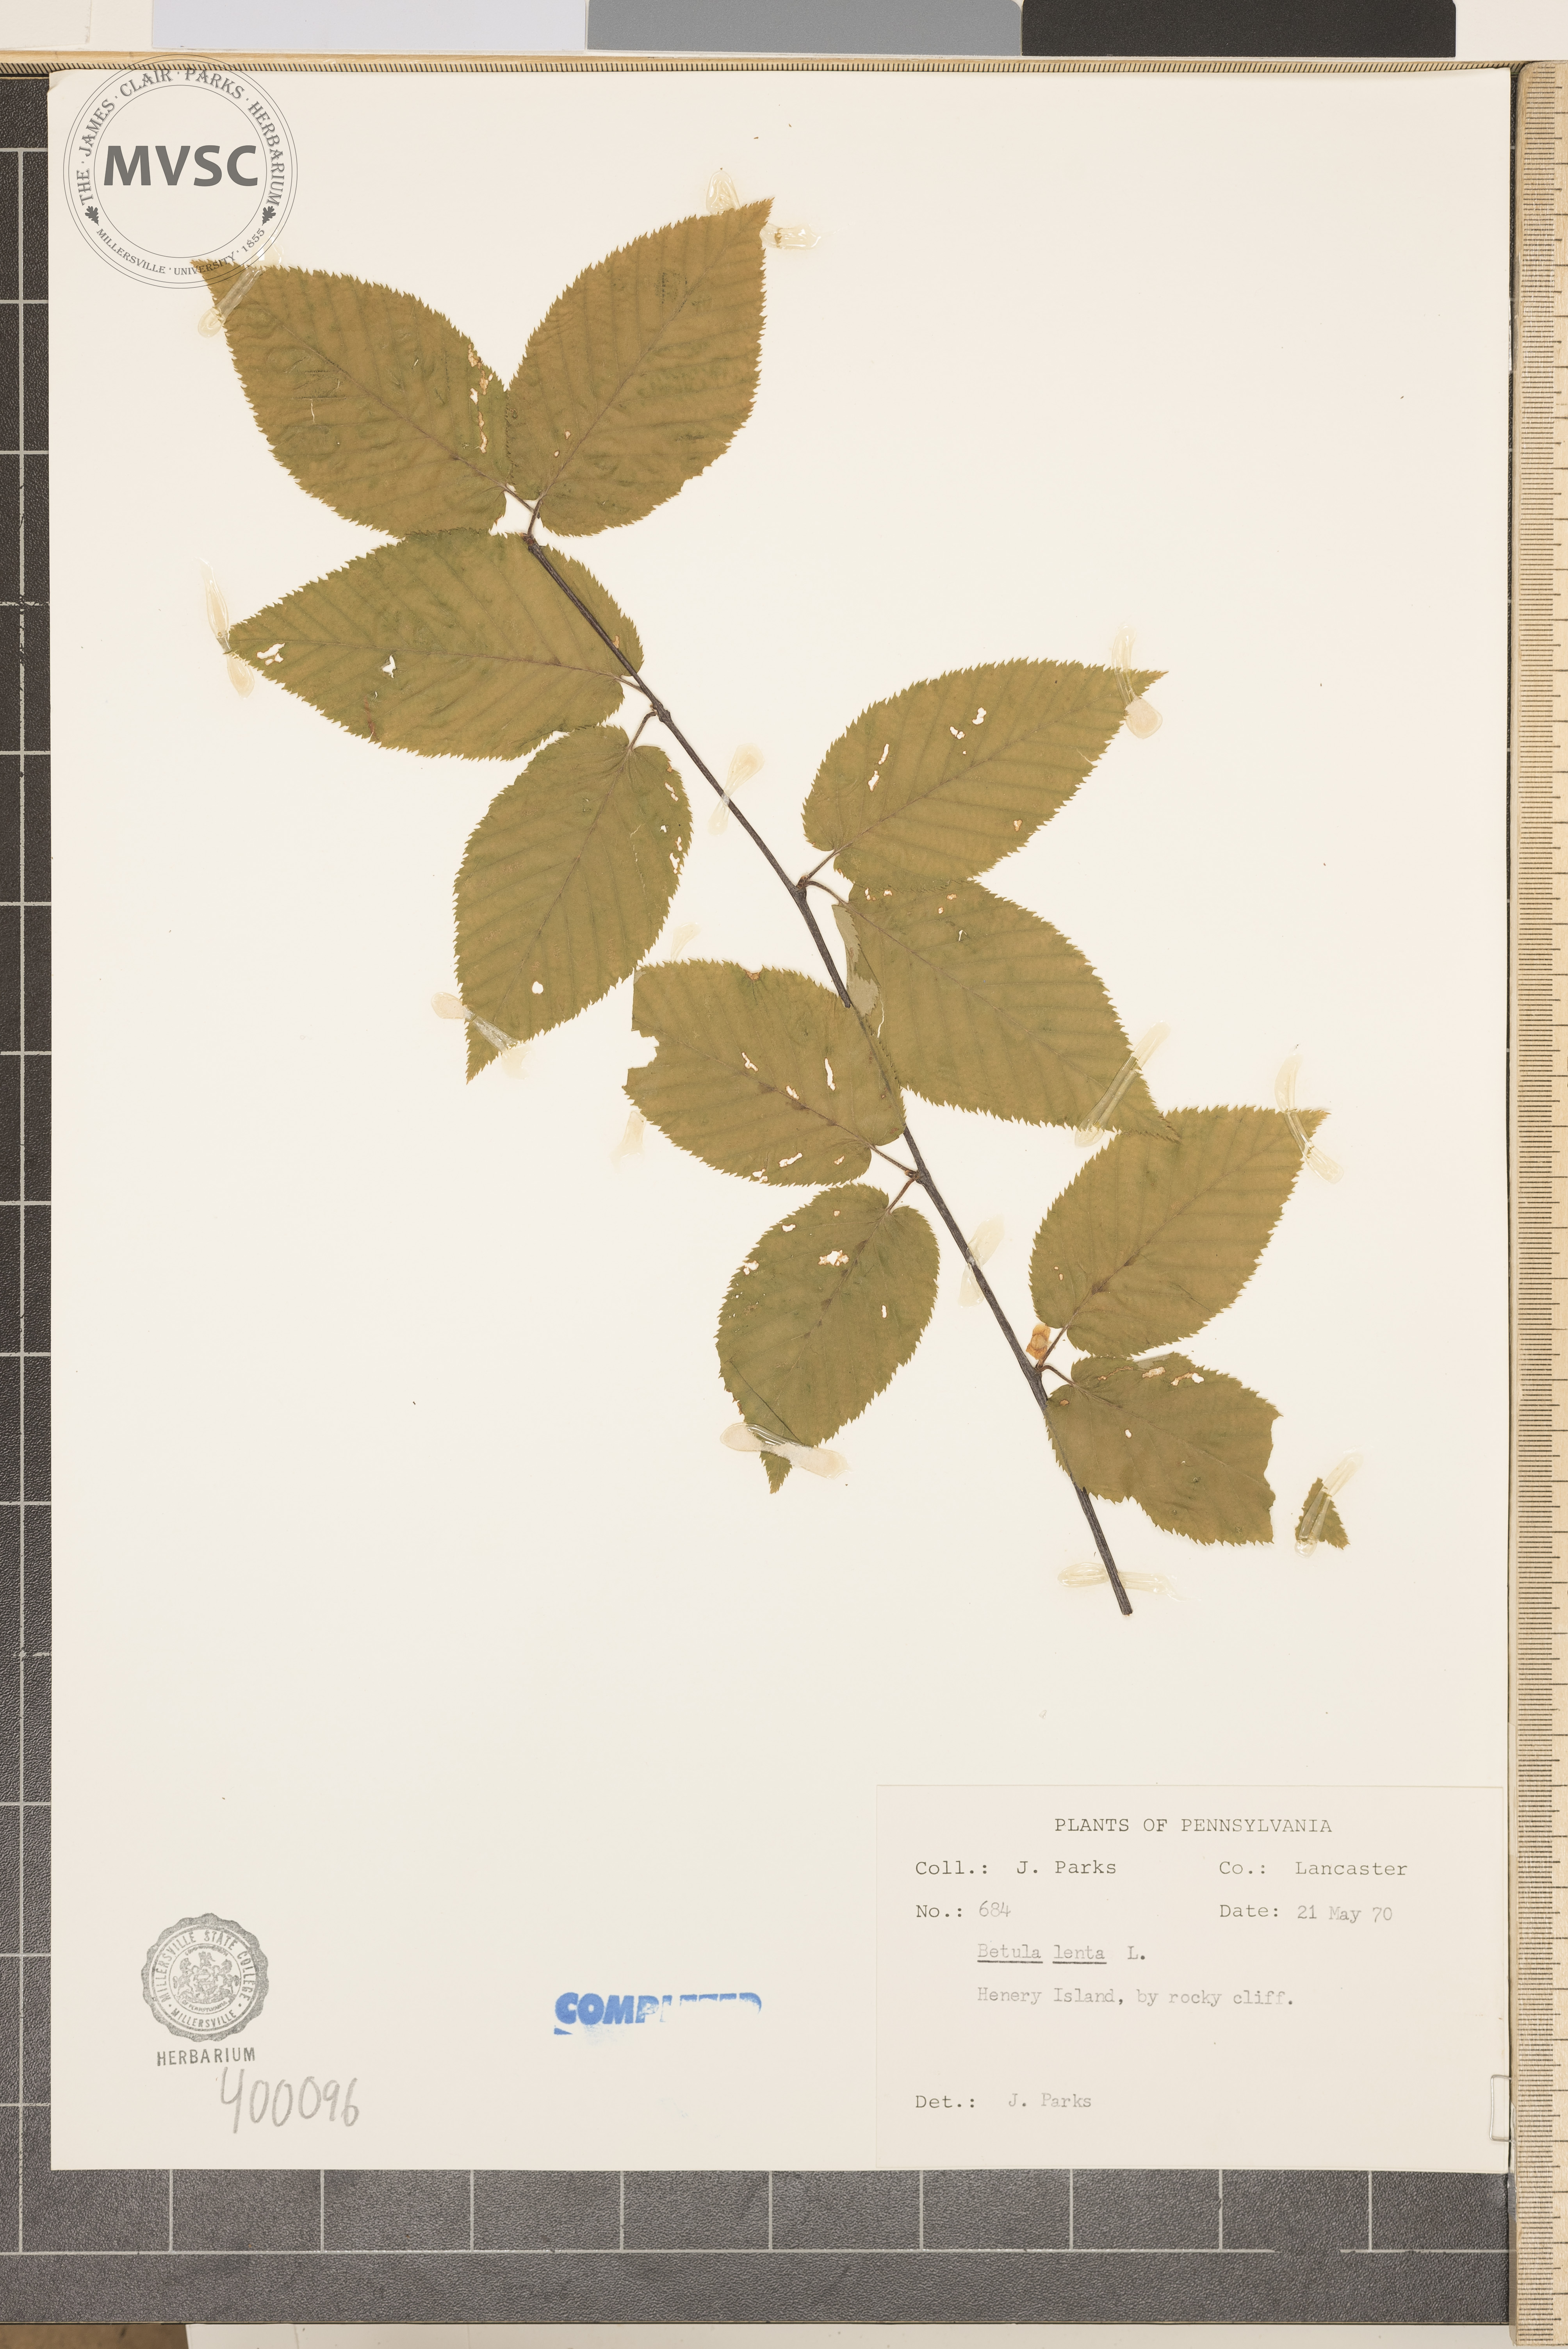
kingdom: Plantae
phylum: Tracheophyta
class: Magnoliopsida
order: Fagales
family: Betulaceae
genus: Betula
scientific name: Betula lenta
